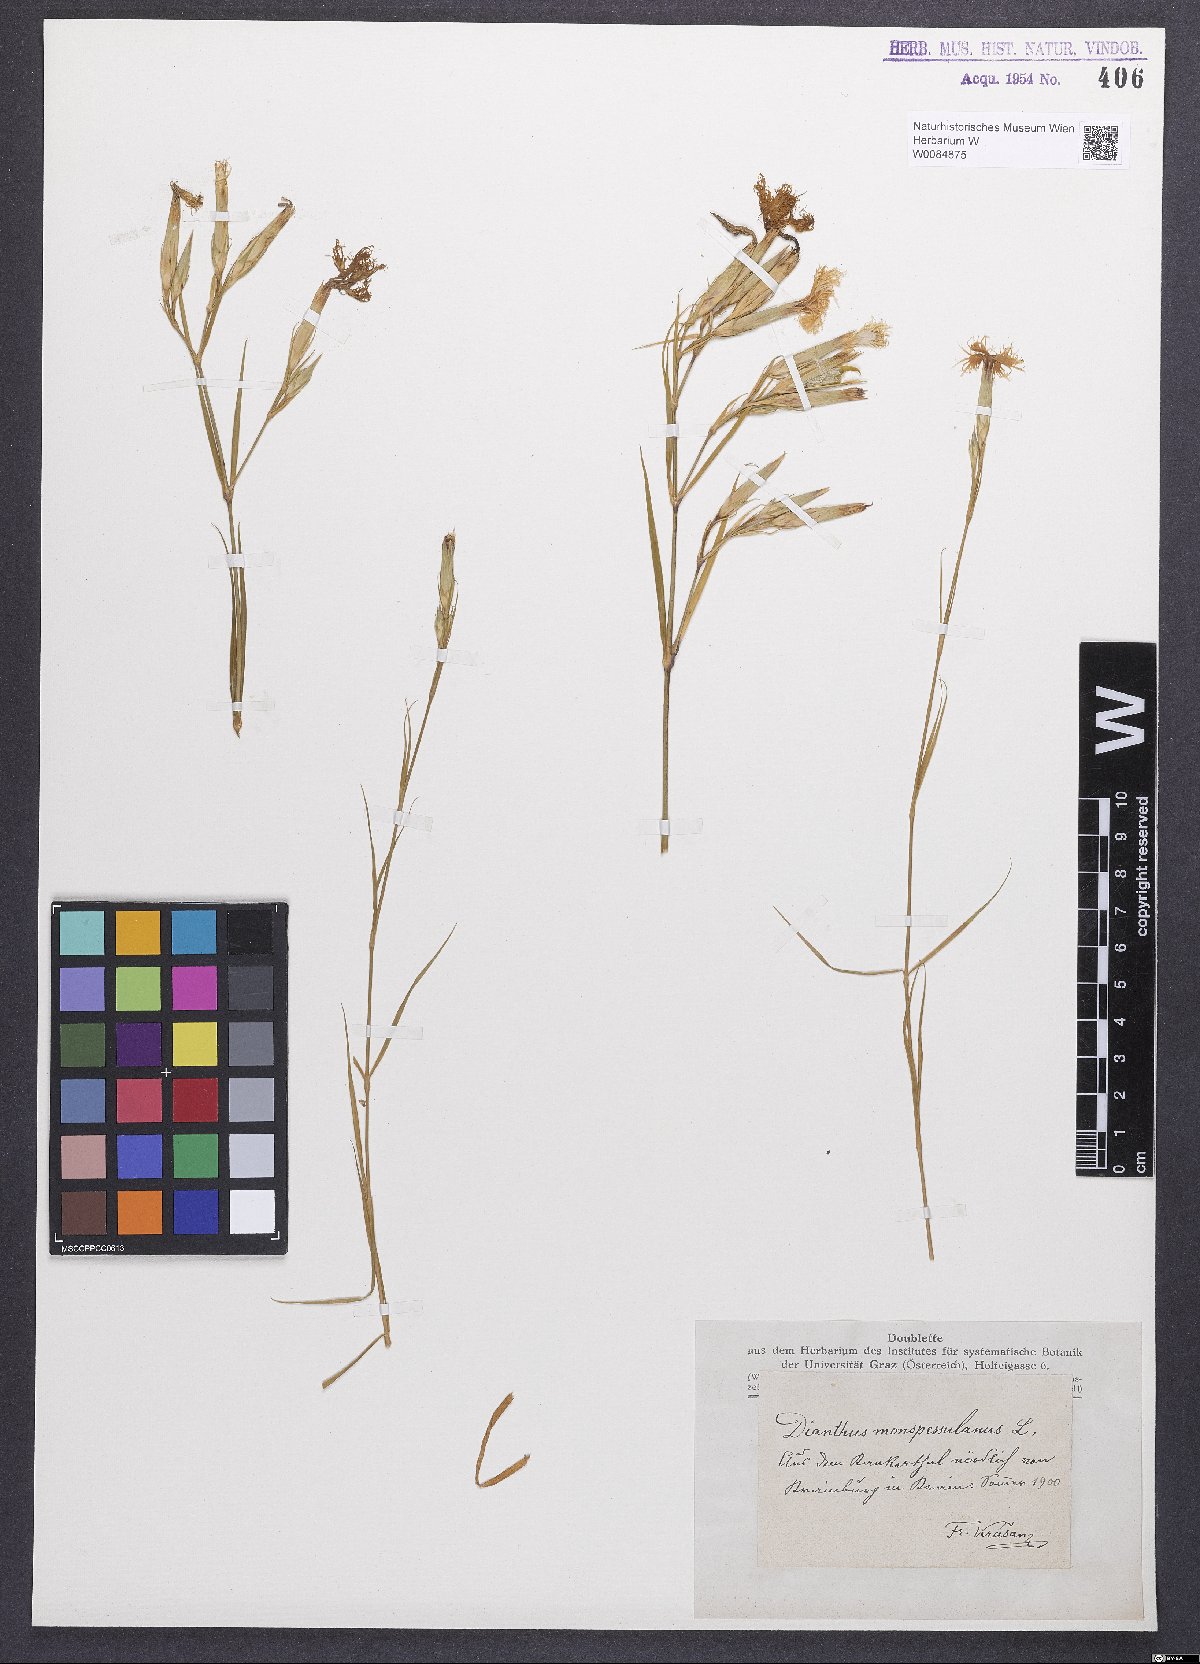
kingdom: Plantae
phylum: Tracheophyta
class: Magnoliopsida
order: Caryophyllales
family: Caryophyllaceae
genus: Dianthus
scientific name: Dianthus hyssopifolius
